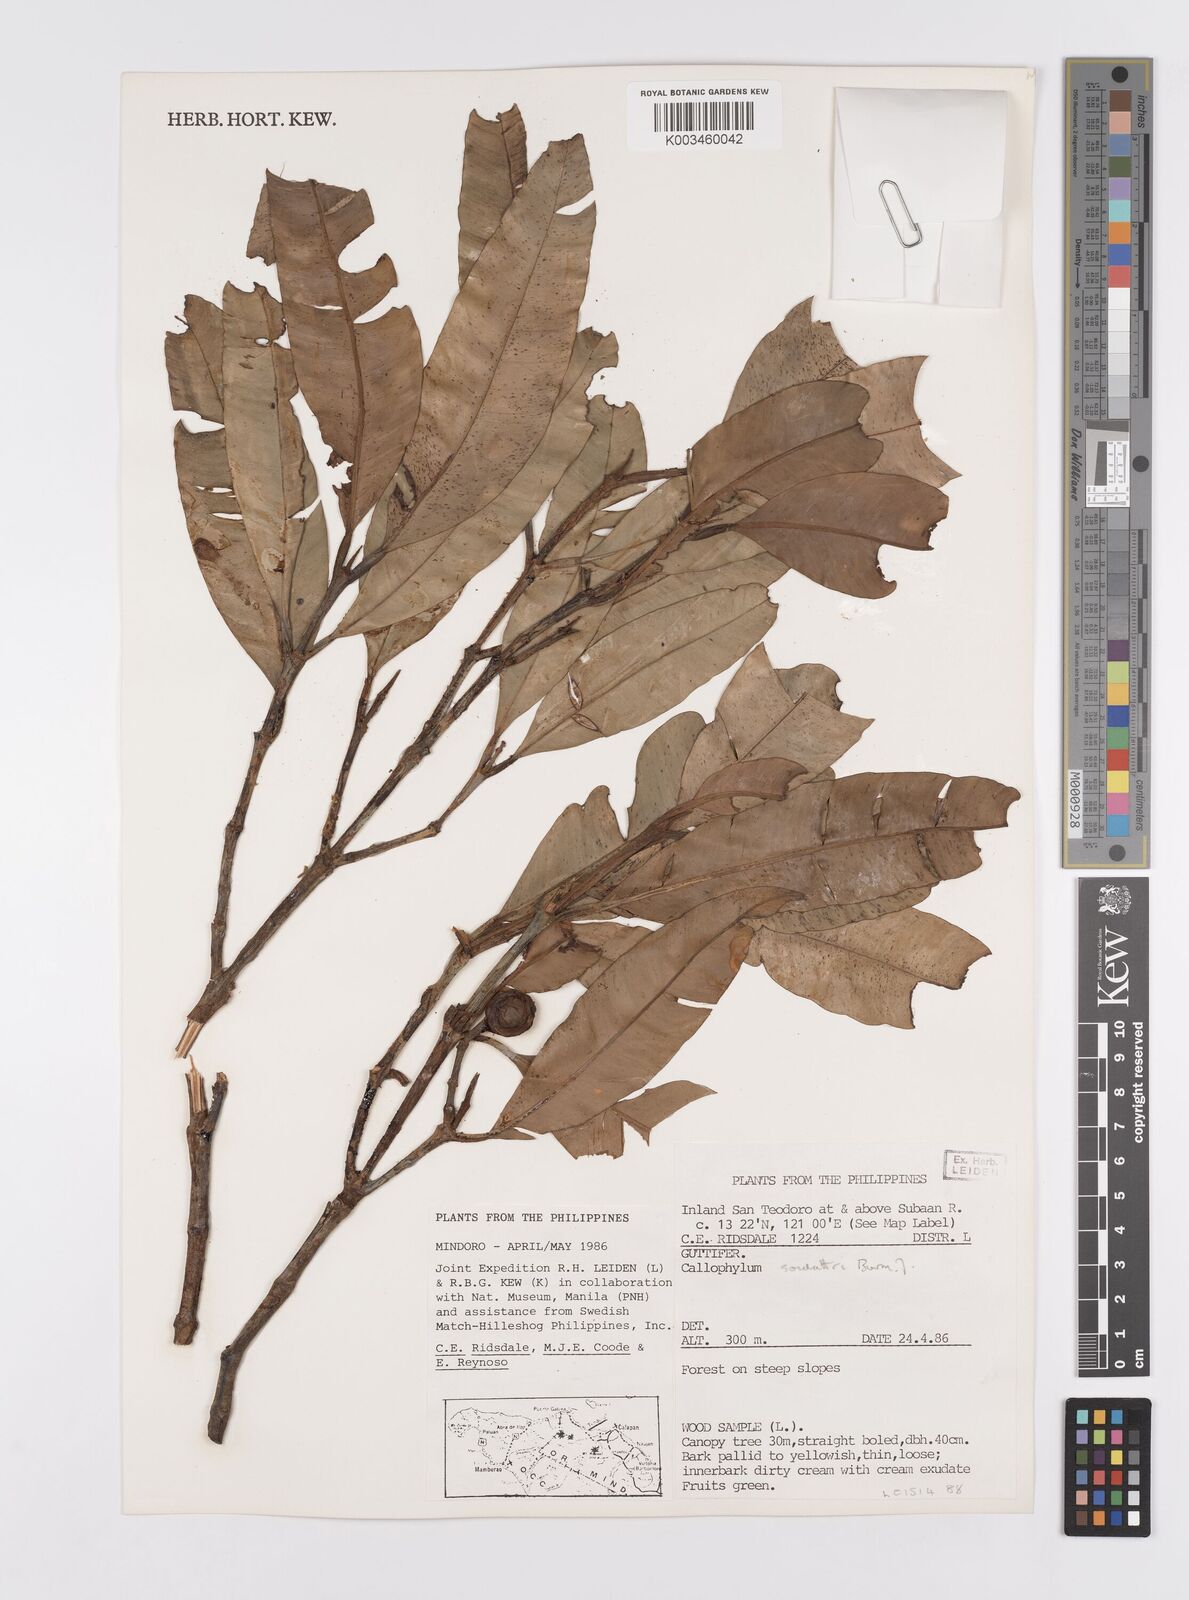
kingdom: Plantae
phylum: Tracheophyta
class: Magnoliopsida
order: Malpighiales
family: Calophyllaceae
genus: Calophyllum
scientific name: Calophyllum soulattri
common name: Bitangoor boonot
